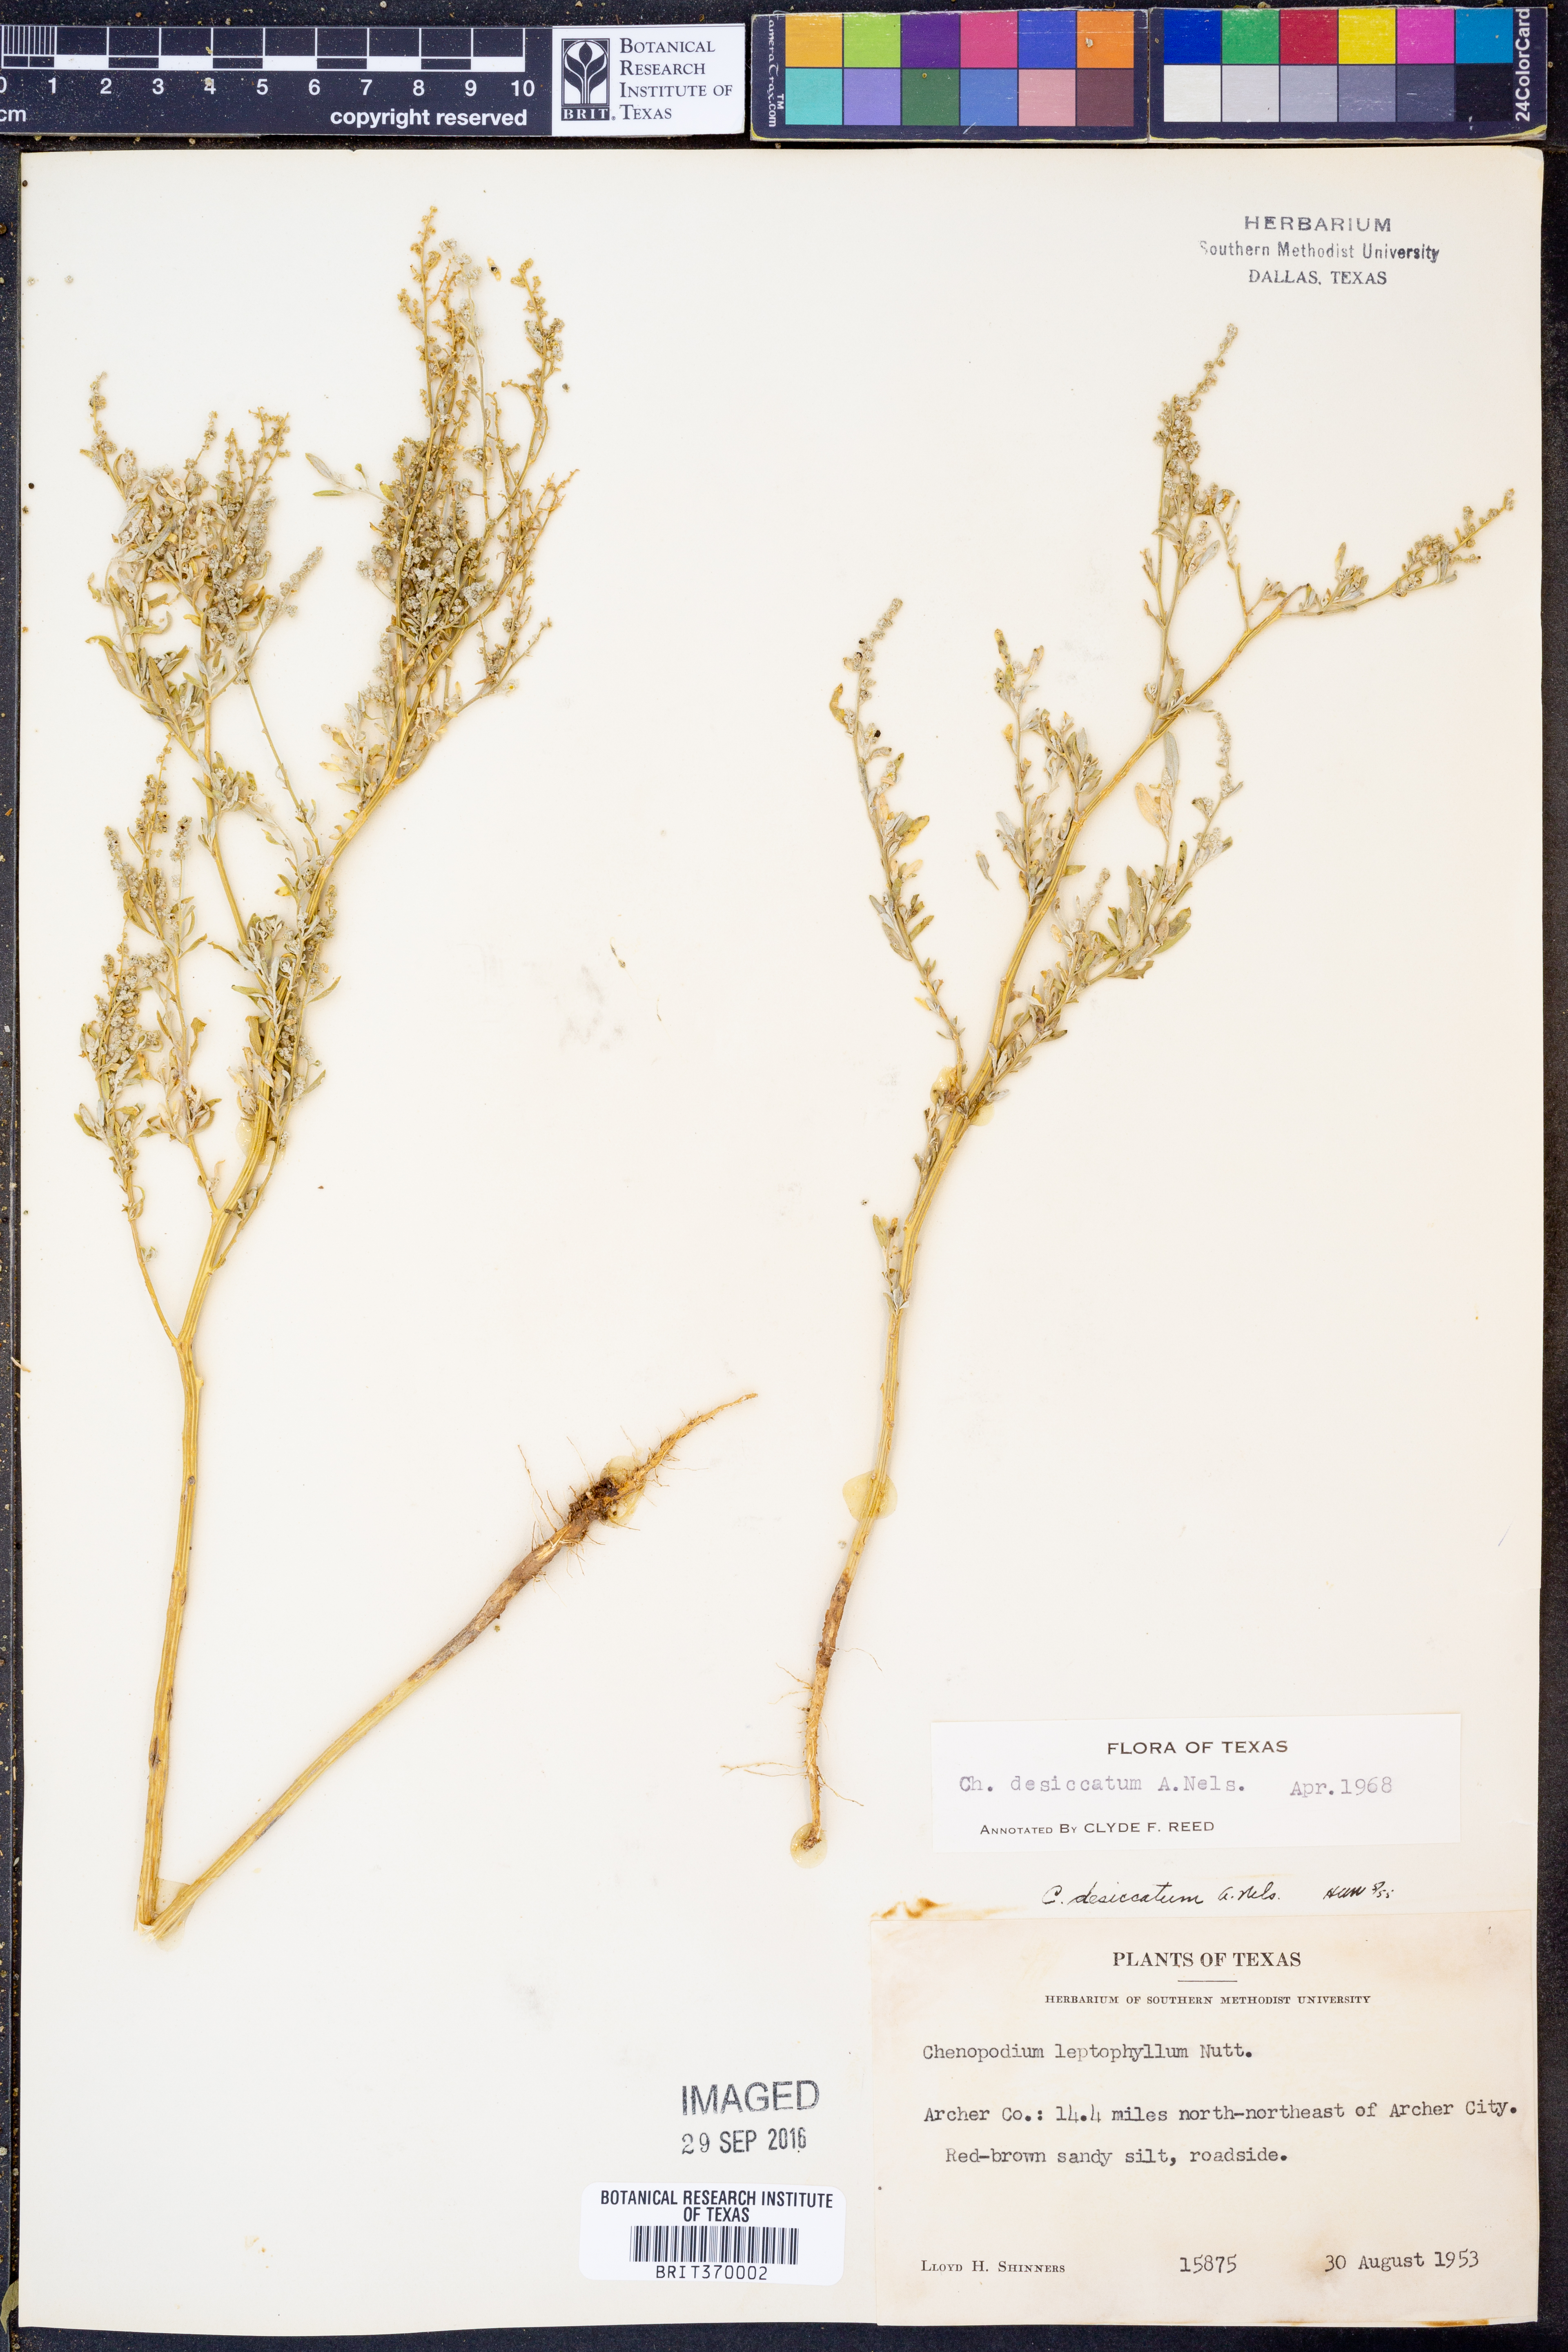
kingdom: Plantae
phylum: Tracheophyta
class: Magnoliopsida
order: Caryophyllales
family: Amaranthaceae
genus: Chenopodium
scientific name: Chenopodium desiccatum
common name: Slimleaf goosefoot
